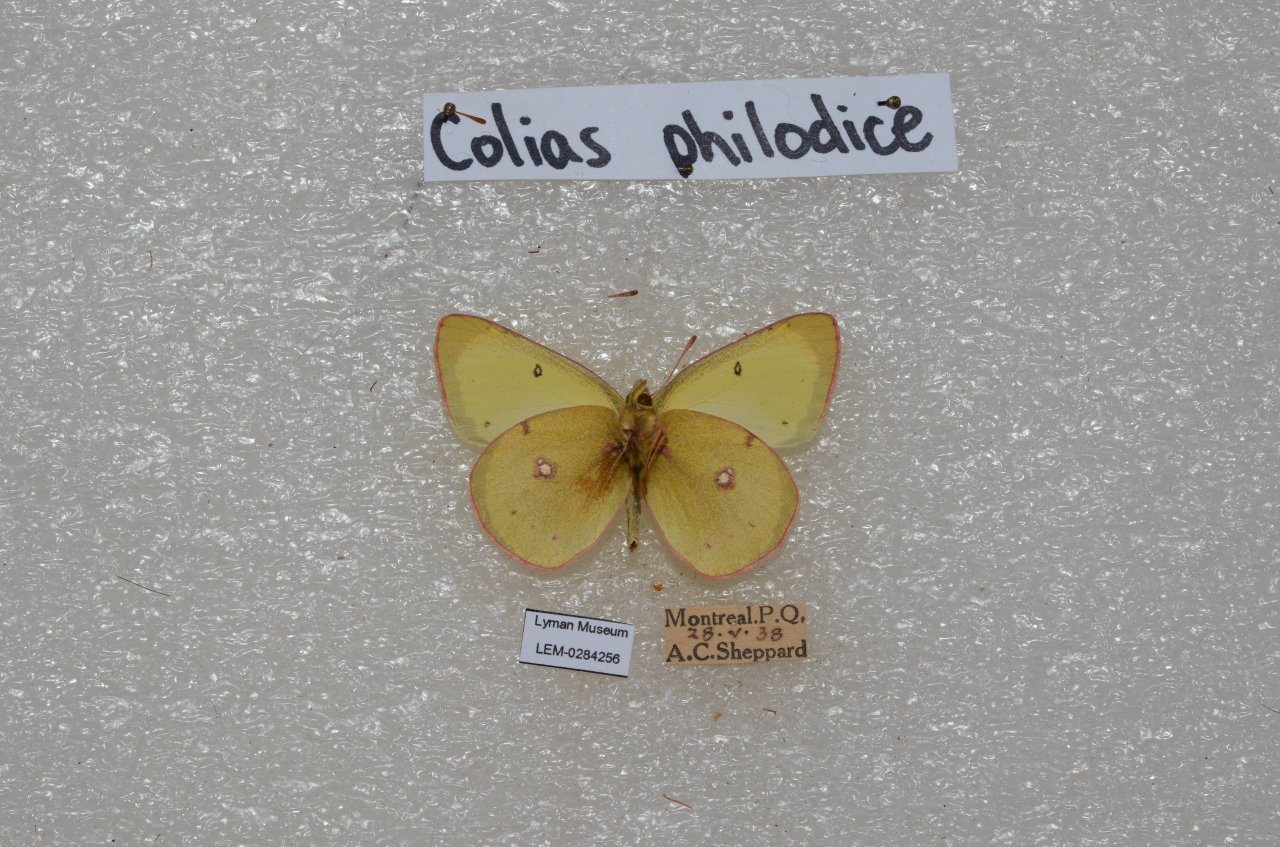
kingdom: Animalia
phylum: Arthropoda
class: Insecta
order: Lepidoptera
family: Pieridae
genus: Colias
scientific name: Colias philodice
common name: Clouded Sulphur
